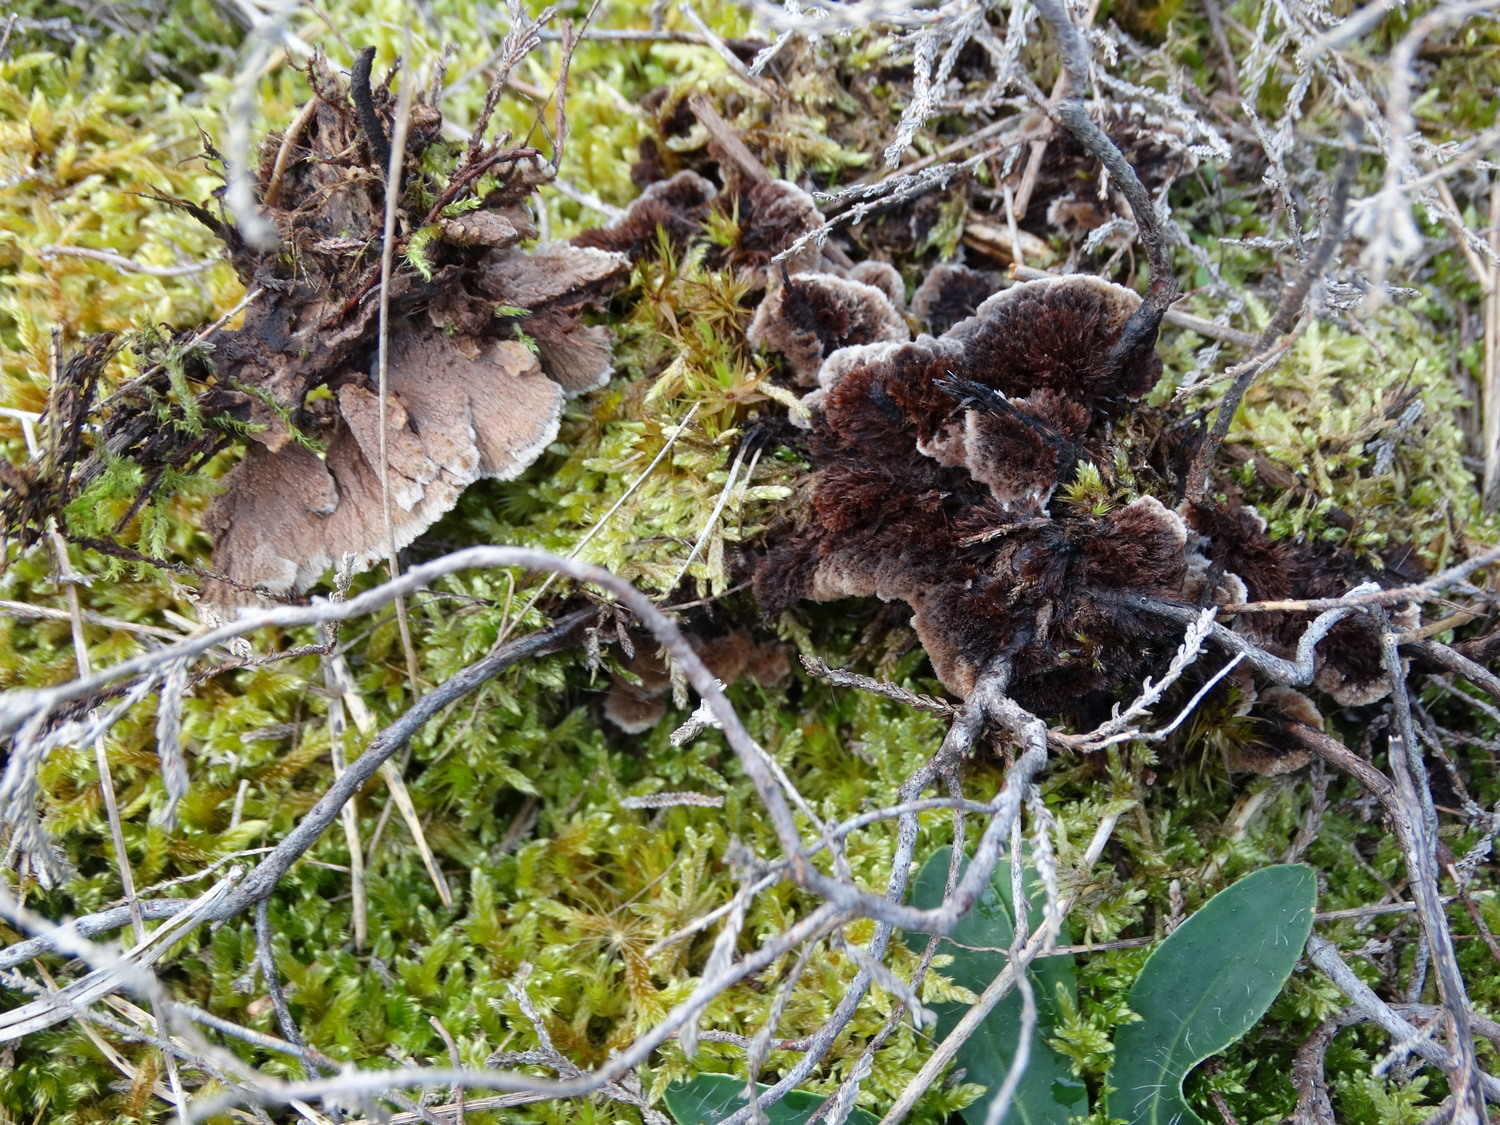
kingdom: Fungi
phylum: Basidiomycota
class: Agaricomycetes
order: Thelephorales
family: Thelephoraceae
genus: Thelephora
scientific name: Thelephora terrestris
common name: fliget frynsesvamp
